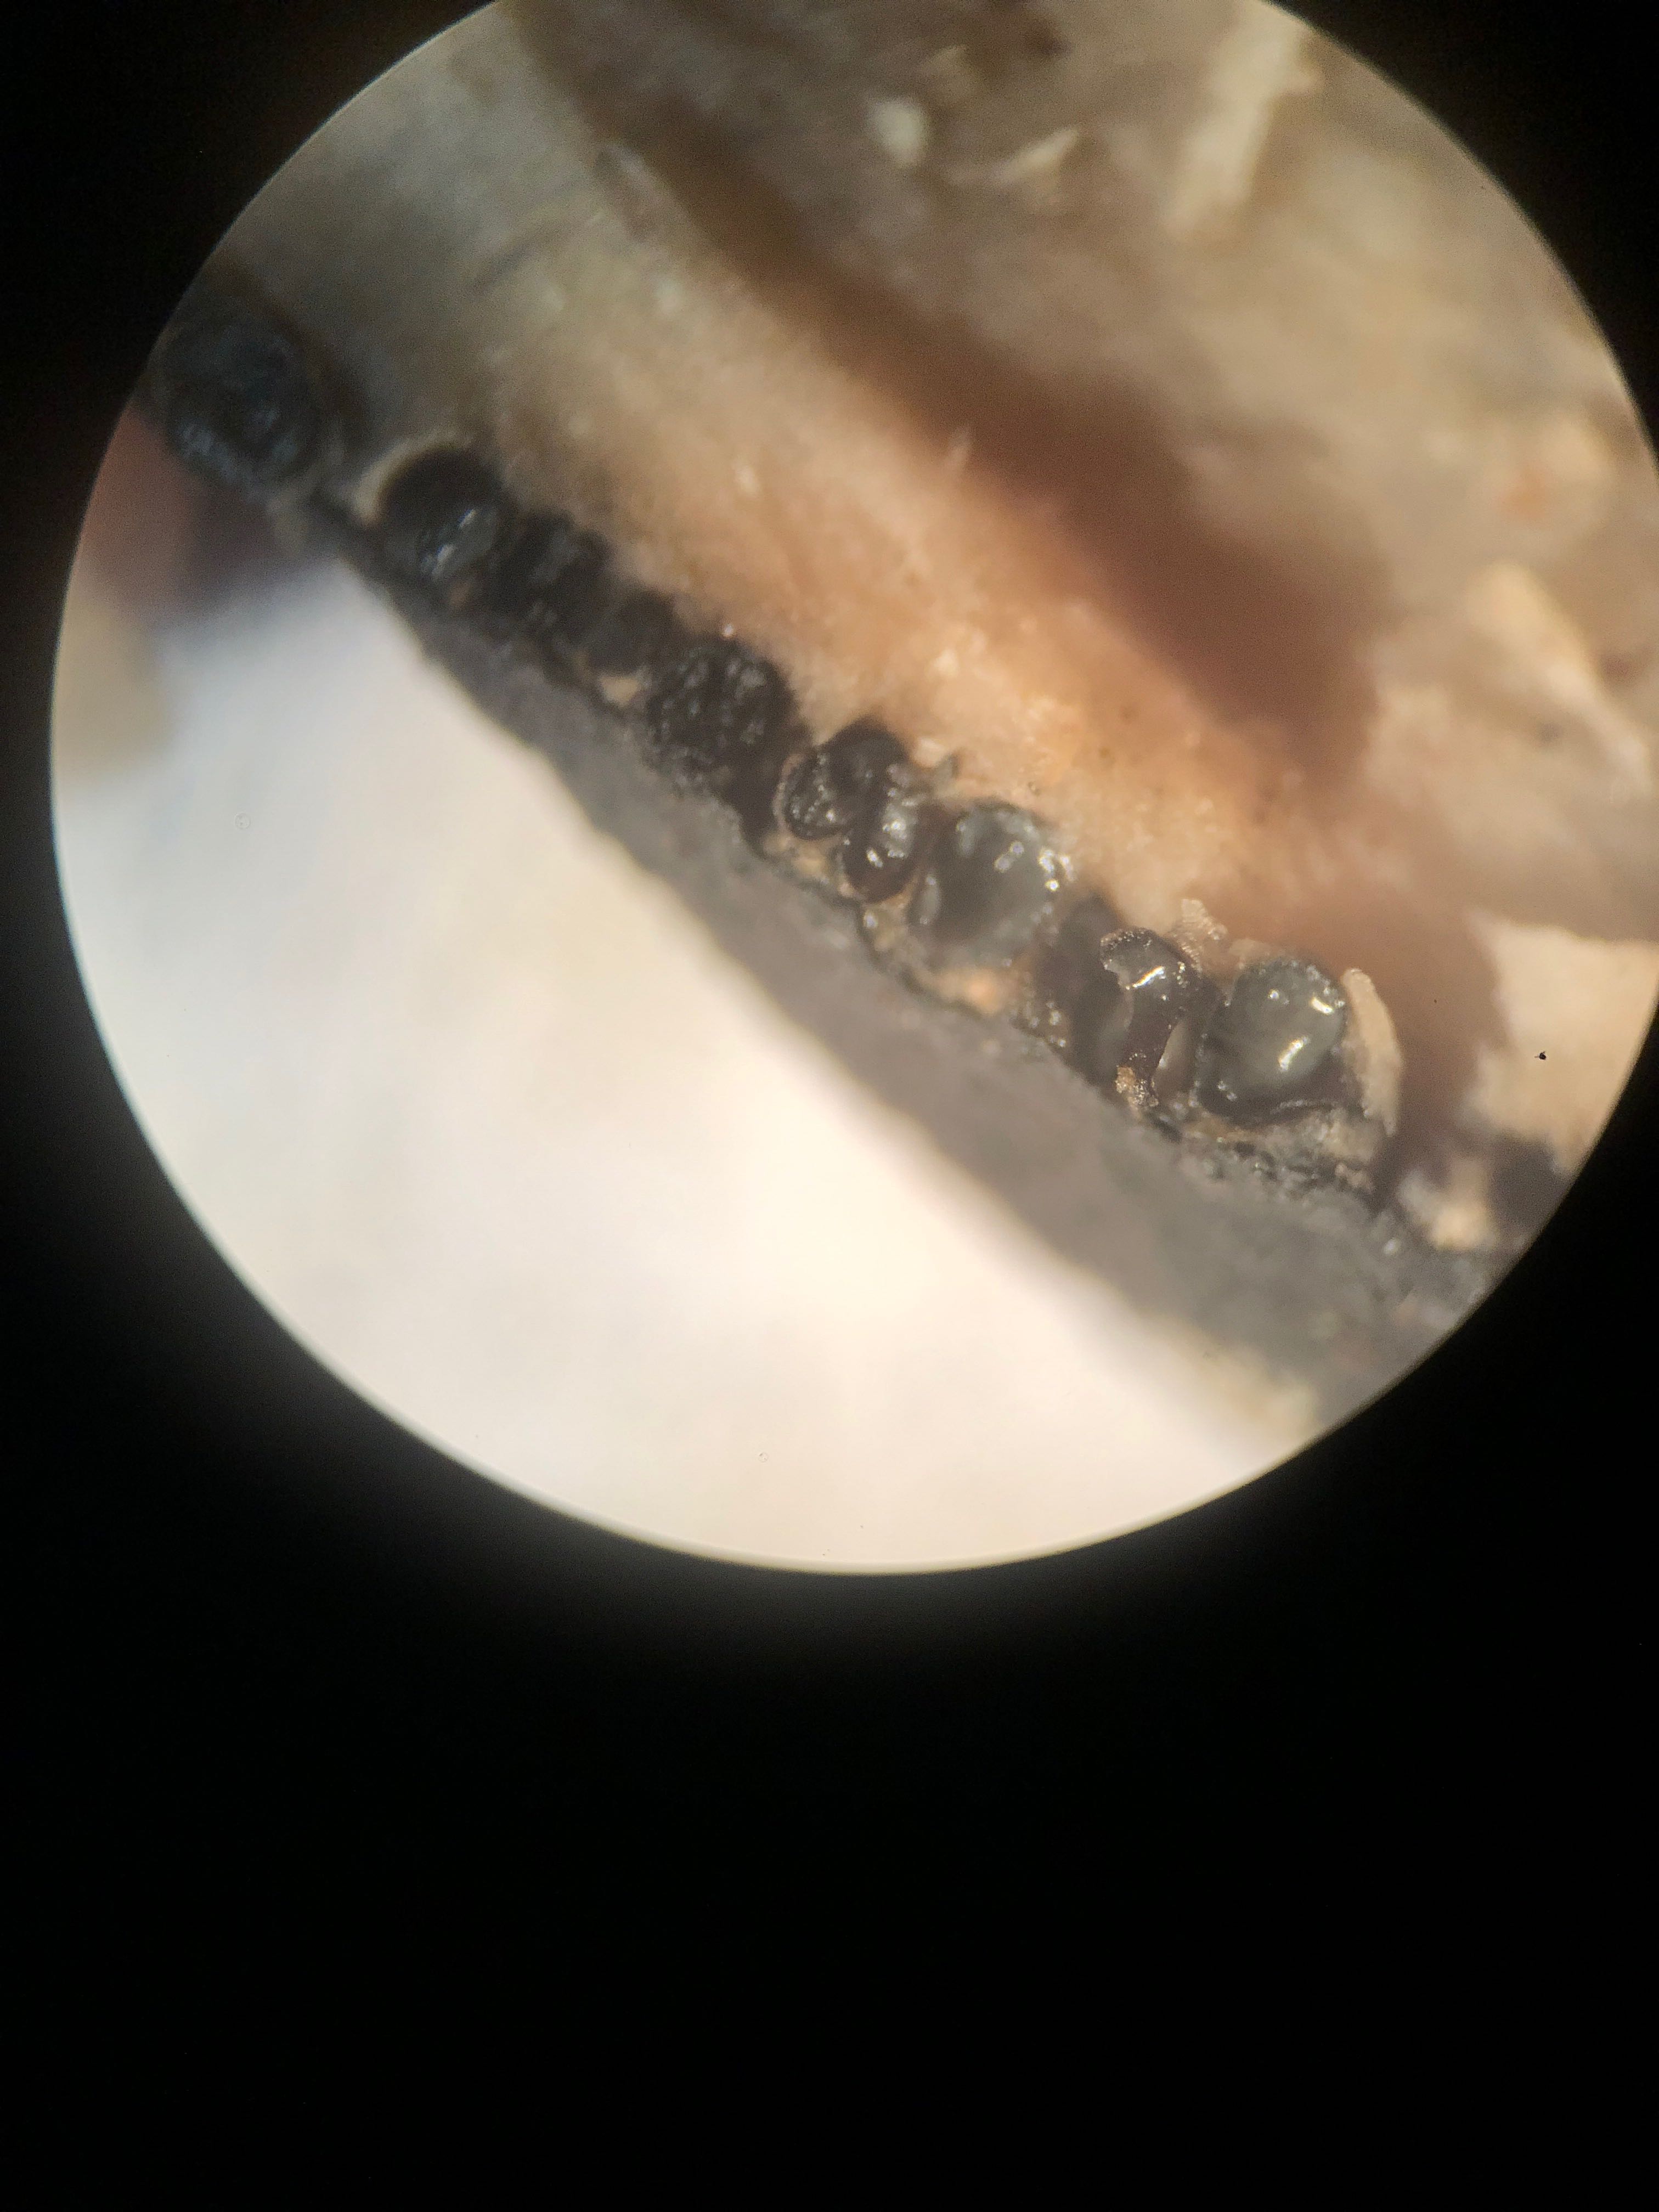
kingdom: Fungi
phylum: Ascomycota
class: Sordariomycetes
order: Xylariales
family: Xylariaceae
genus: Xylaria
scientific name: Xylaria polymorpha
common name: kølle-stødsvamp
